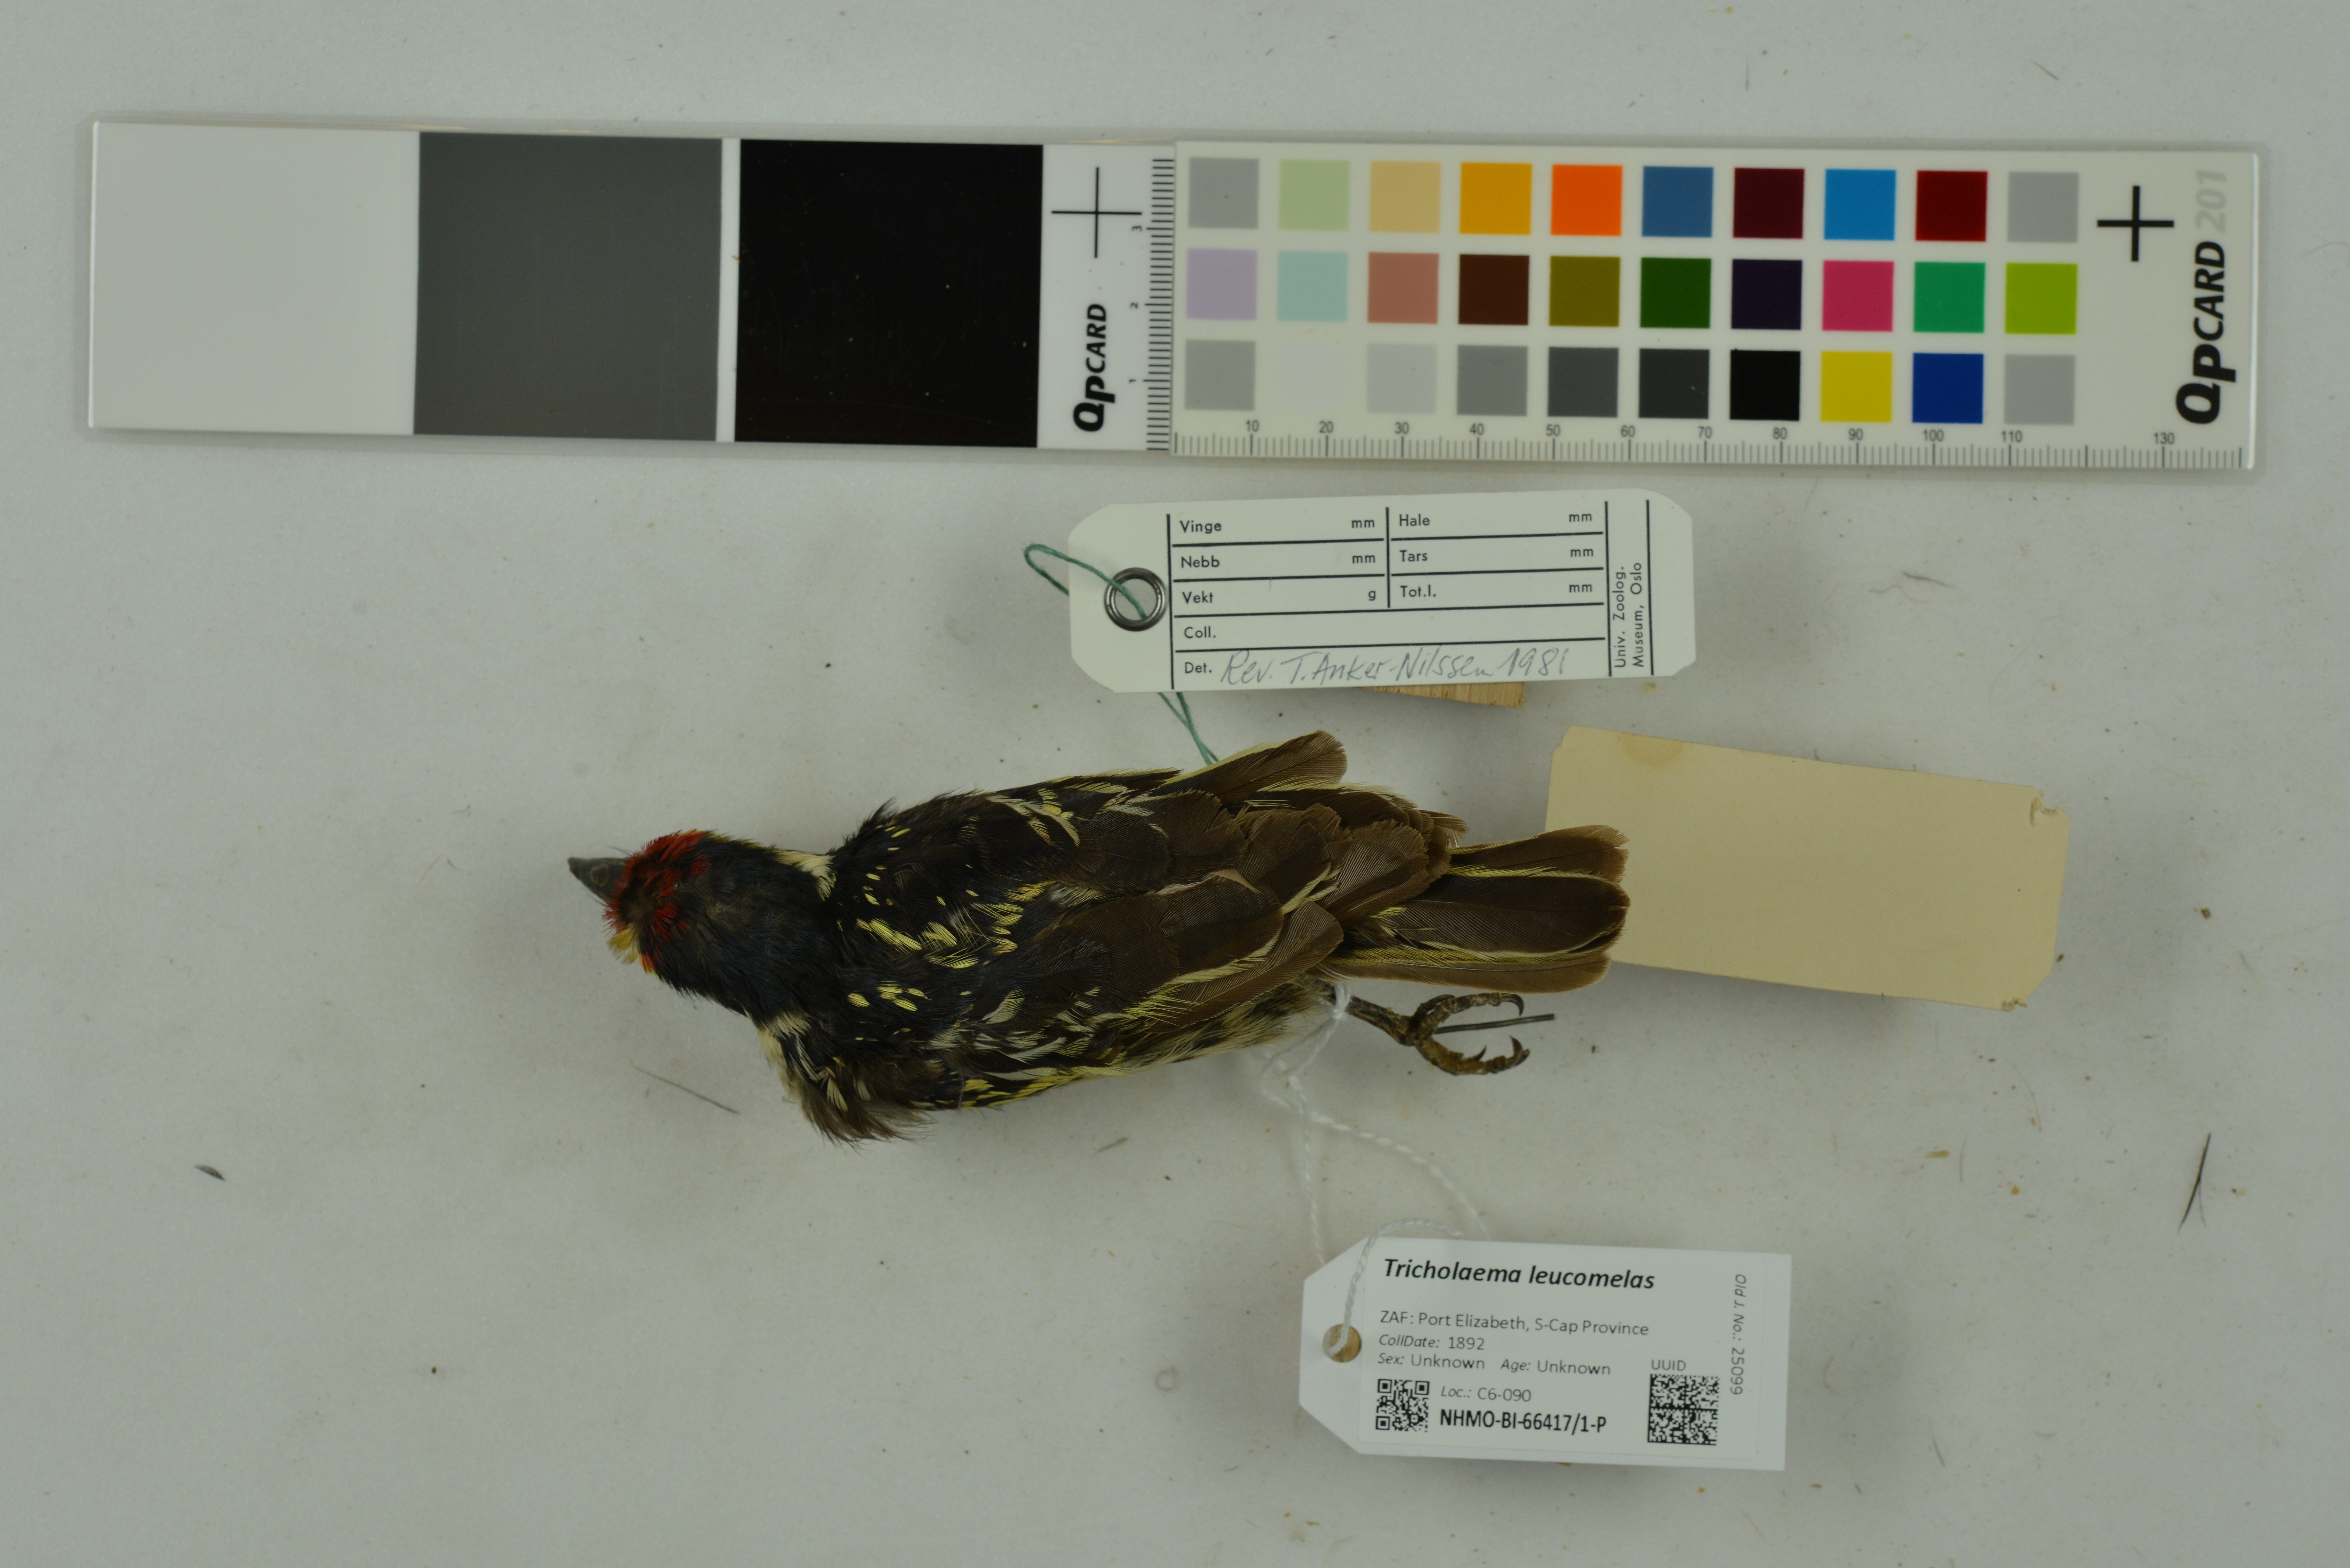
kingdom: Animalia
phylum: Chordata
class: Aves
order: Piciformes
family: Lybiidae
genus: Tricholaema
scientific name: Tricholaema leucomelas
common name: Acacia pied barbet
